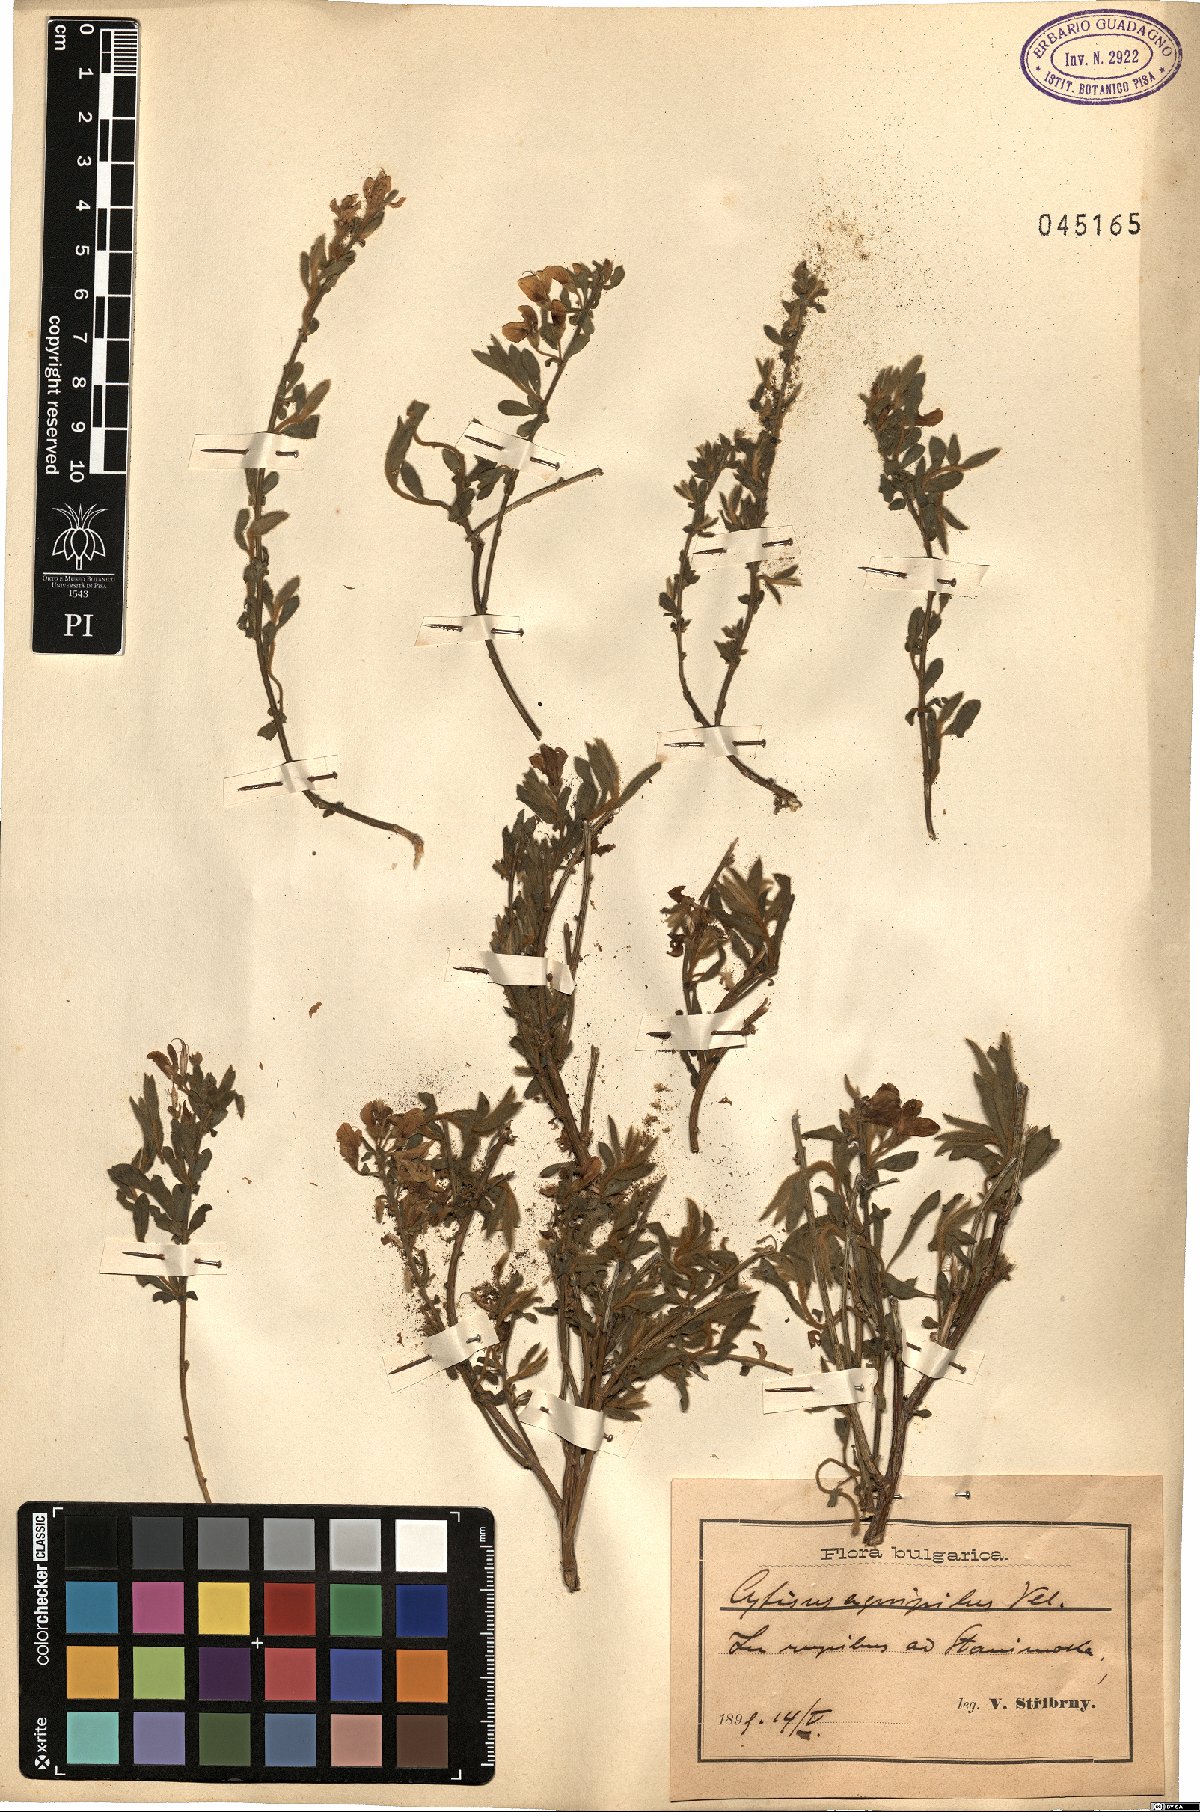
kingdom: Plantae
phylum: Tracheophyta
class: Magnoliopsida
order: Fabales
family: Fabaceae
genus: Cytisus
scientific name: Cytisus agnipilus
